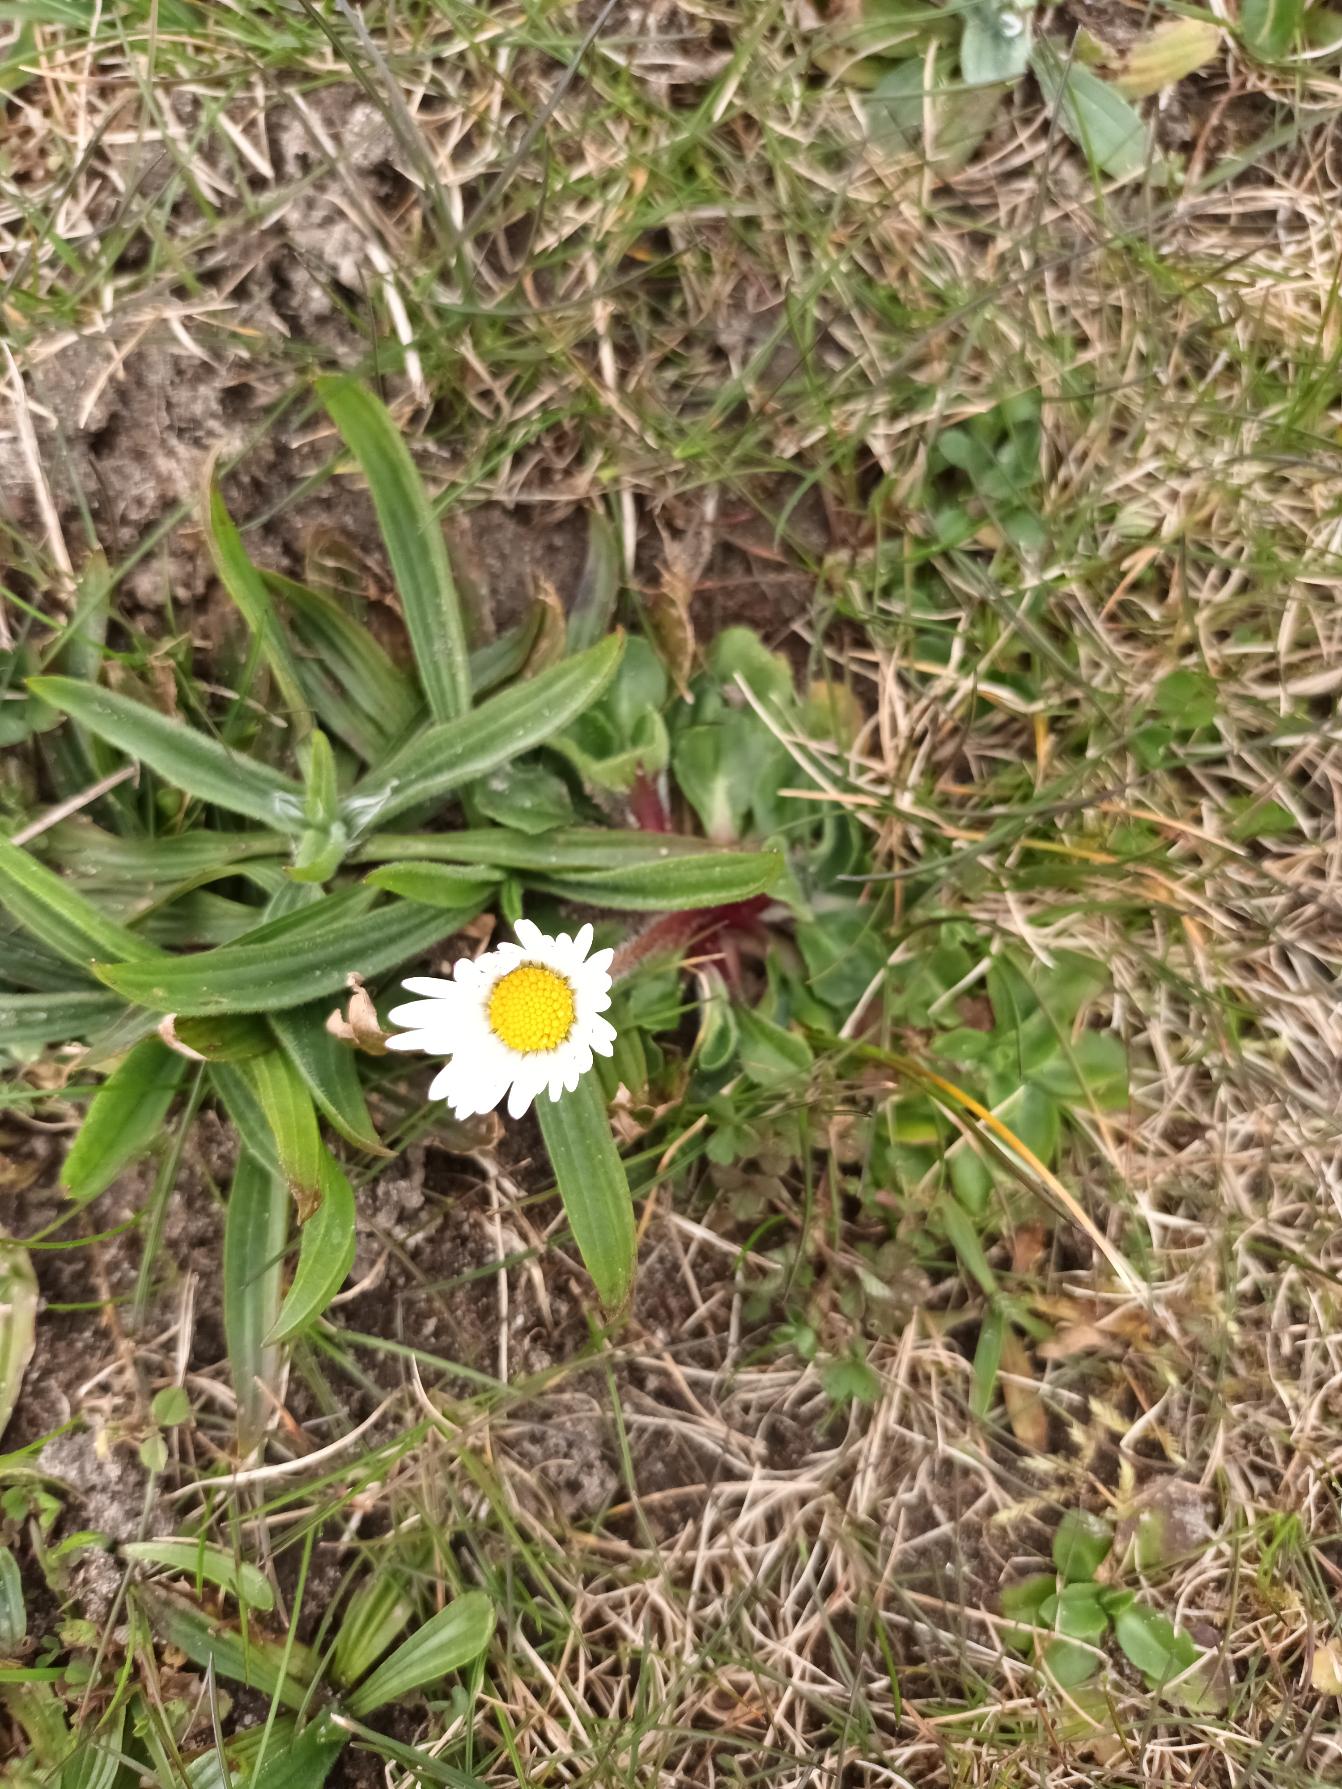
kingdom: Plantae
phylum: Tracheophyta
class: Magnoliopsida
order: Asterales
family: Asteraceae
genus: Bellis
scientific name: Bellis perennis
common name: Tusindfryd
